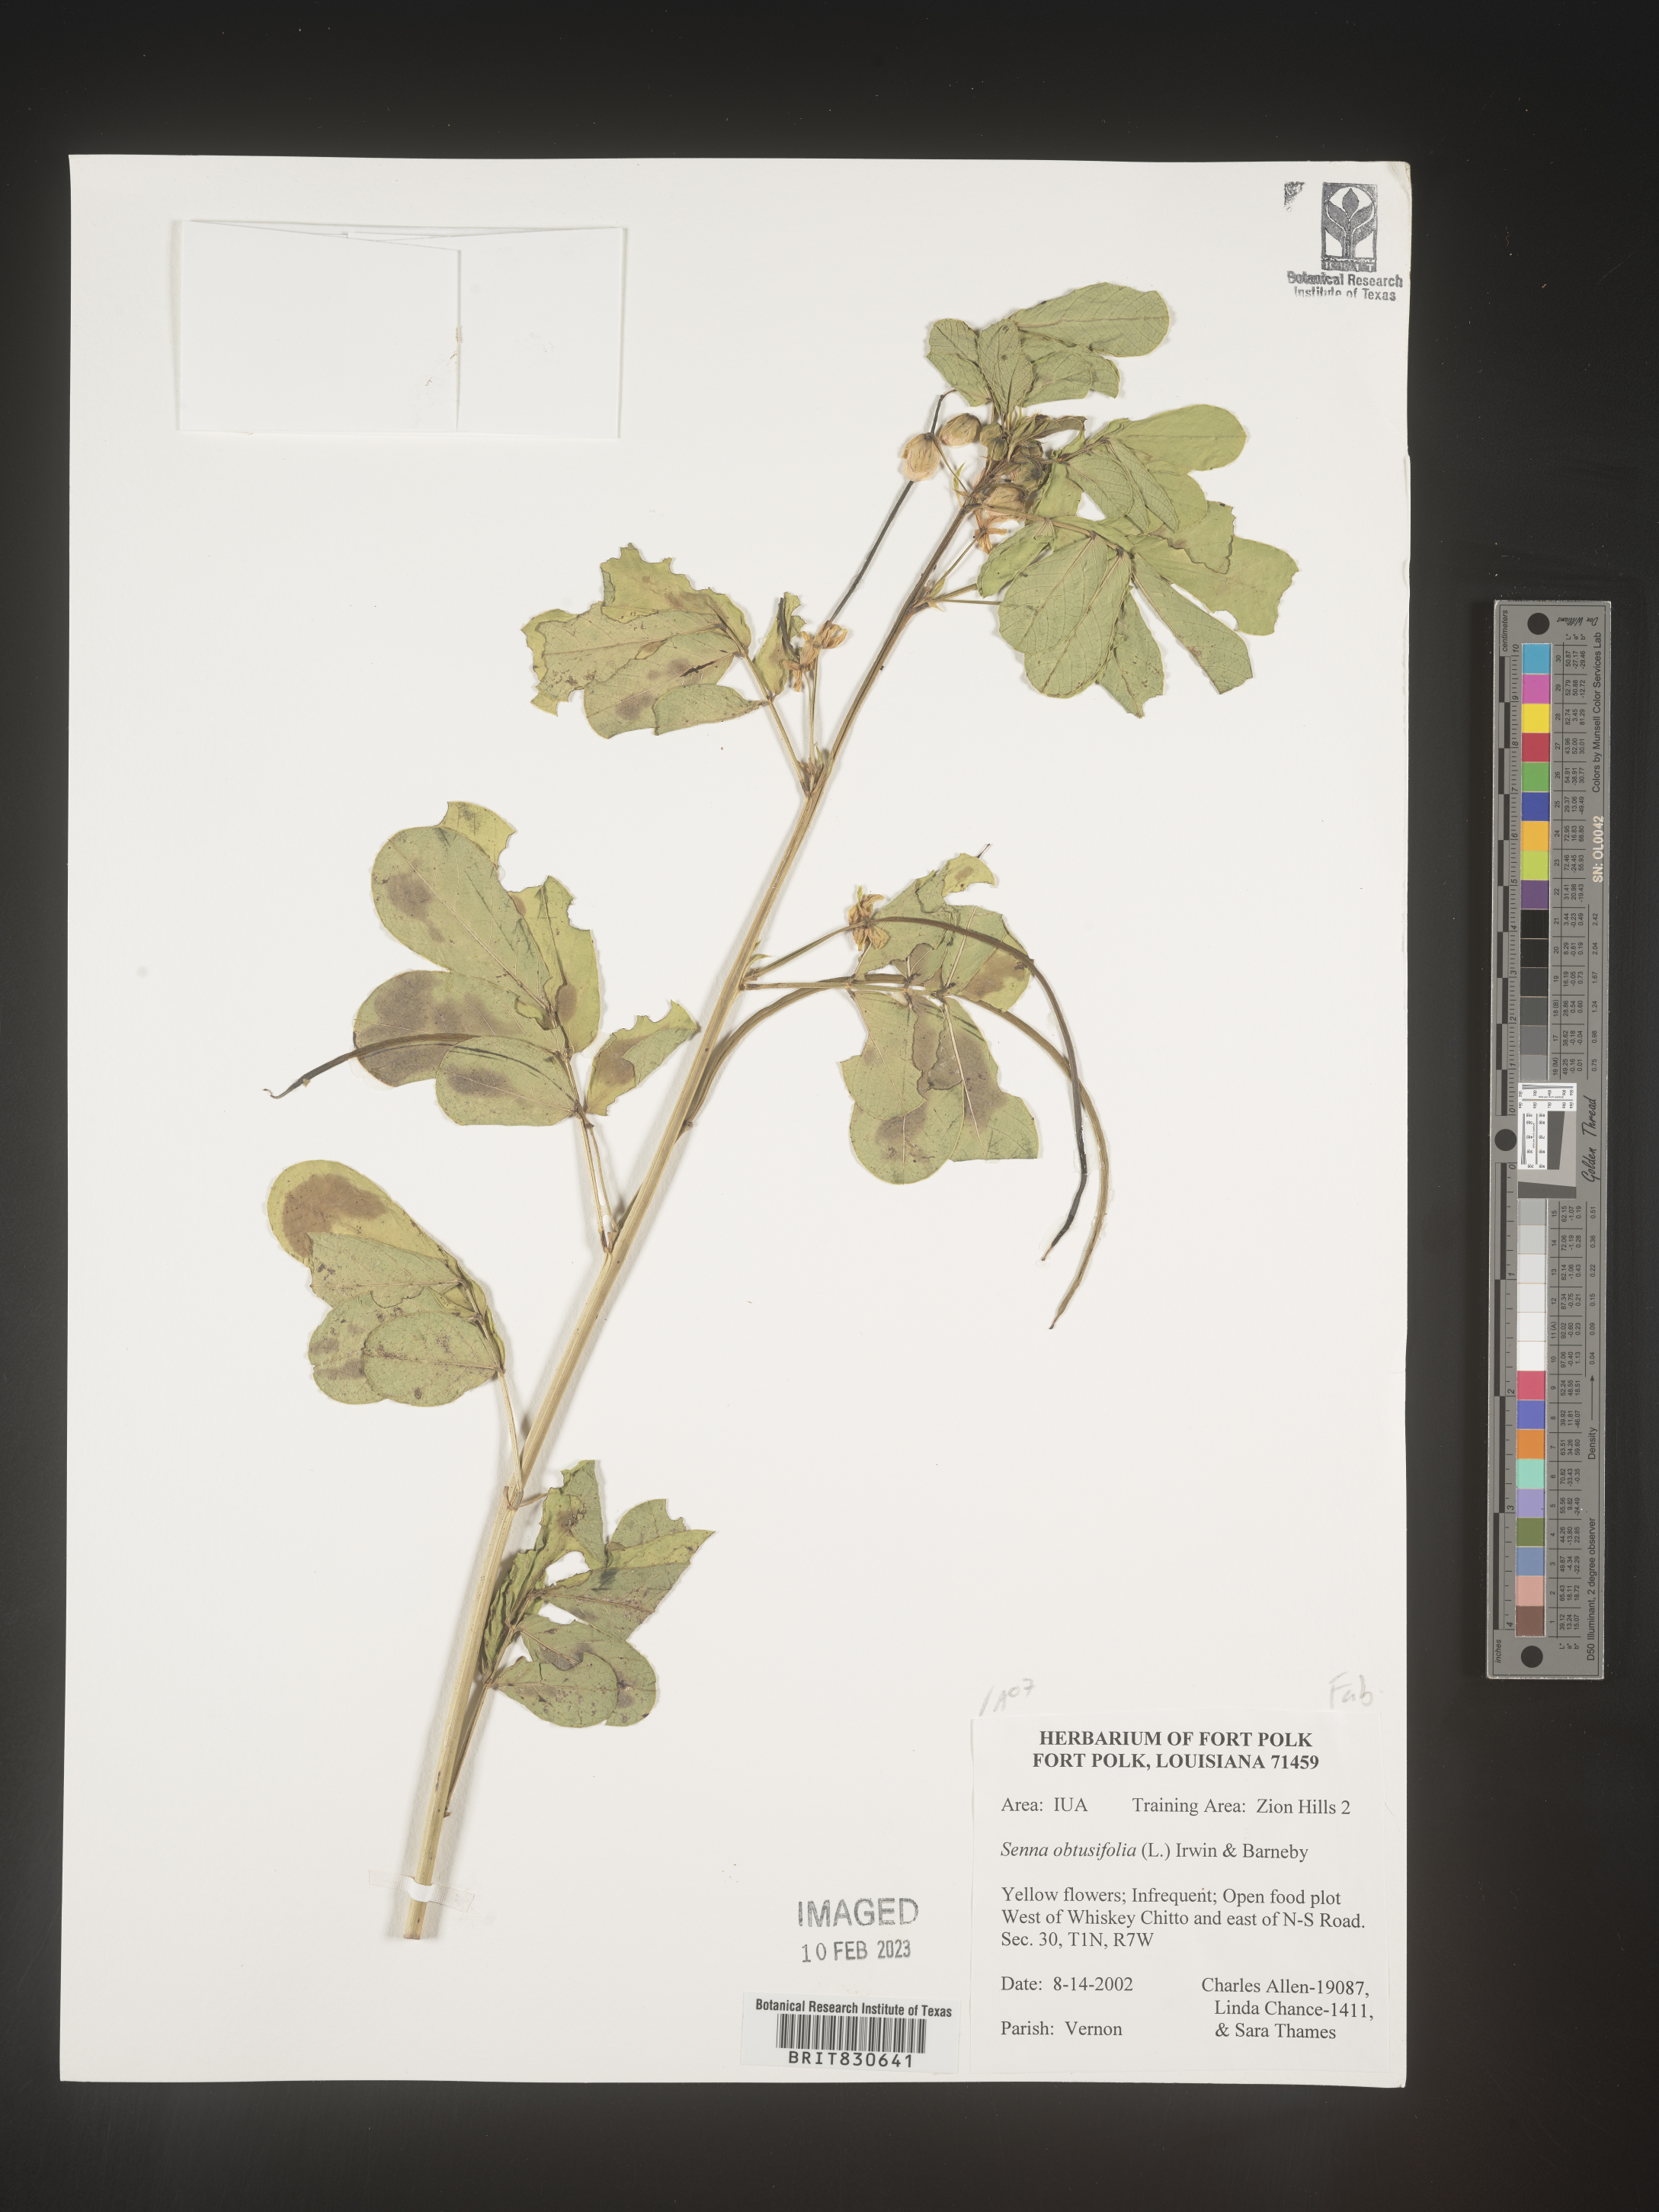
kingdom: Plantae
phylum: Tracheophyta
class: Magnoliopsida
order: Fabales
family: Fabaceae
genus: Senna
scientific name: Senna obtusifolia
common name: Java-bean
